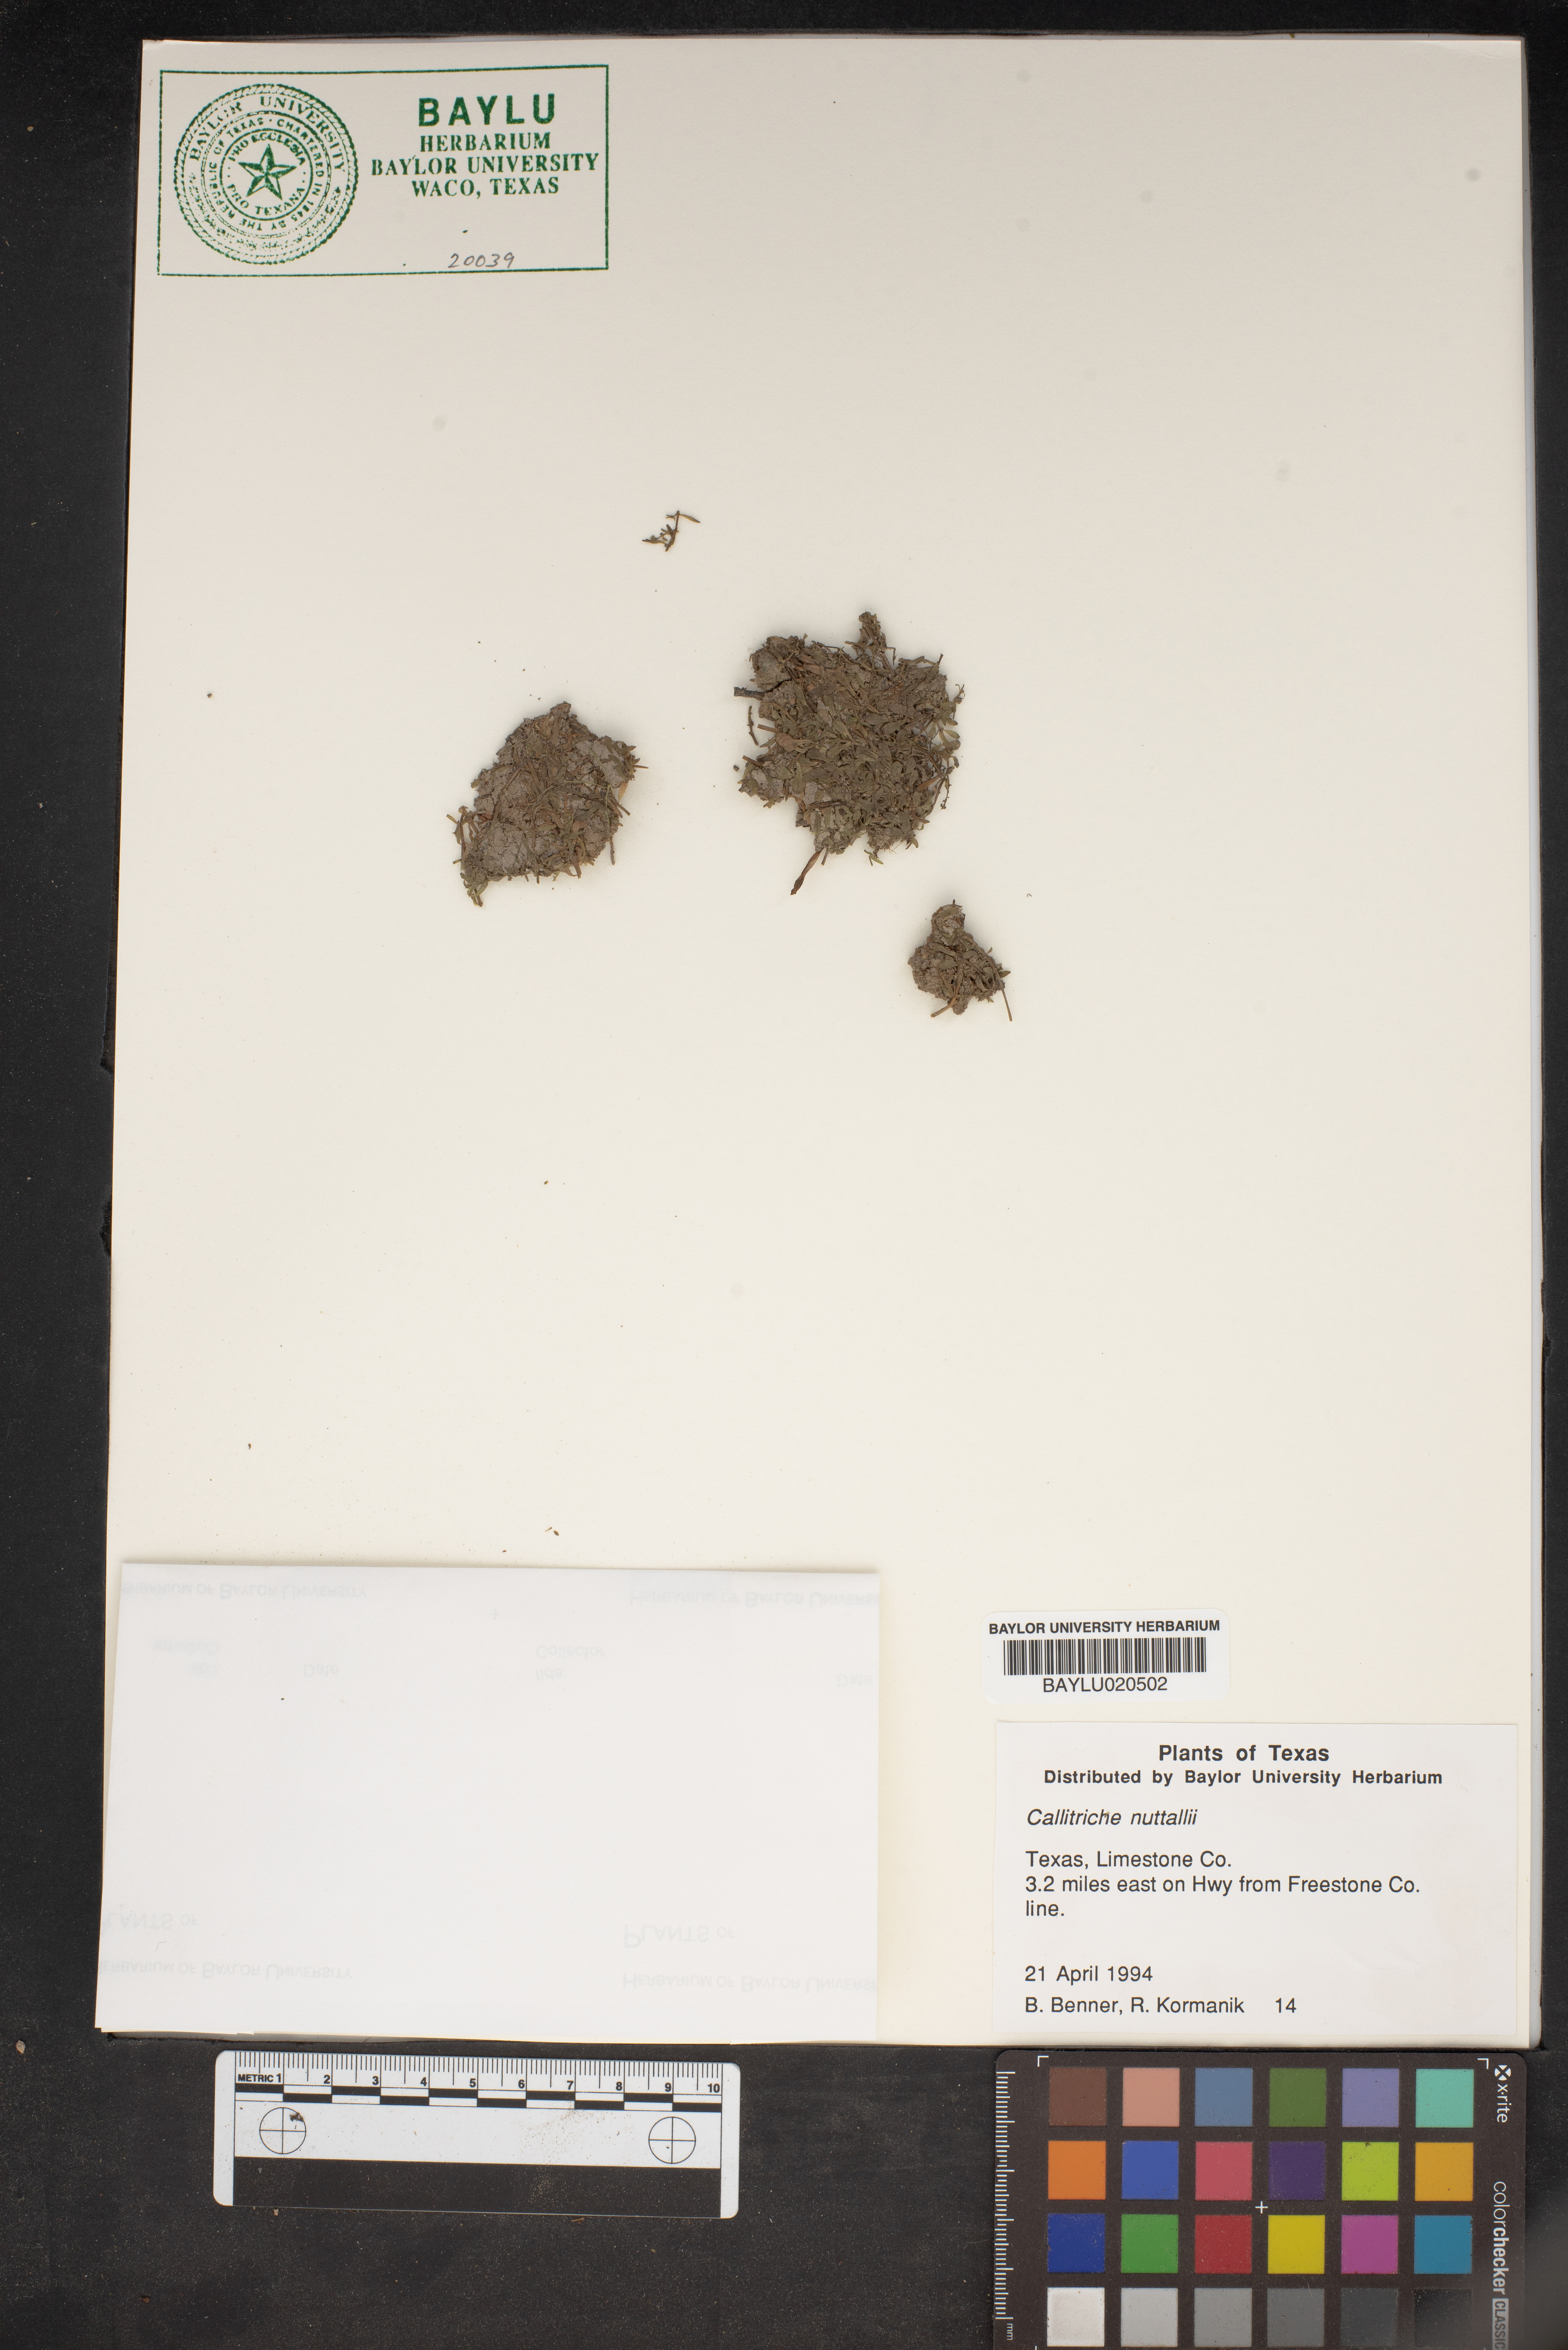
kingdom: Plantae
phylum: Tracheophyta
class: Magnoliopsida
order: Lamiales
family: Plantaginaceae
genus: Callitriche
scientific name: Callitriche pedunculosa
